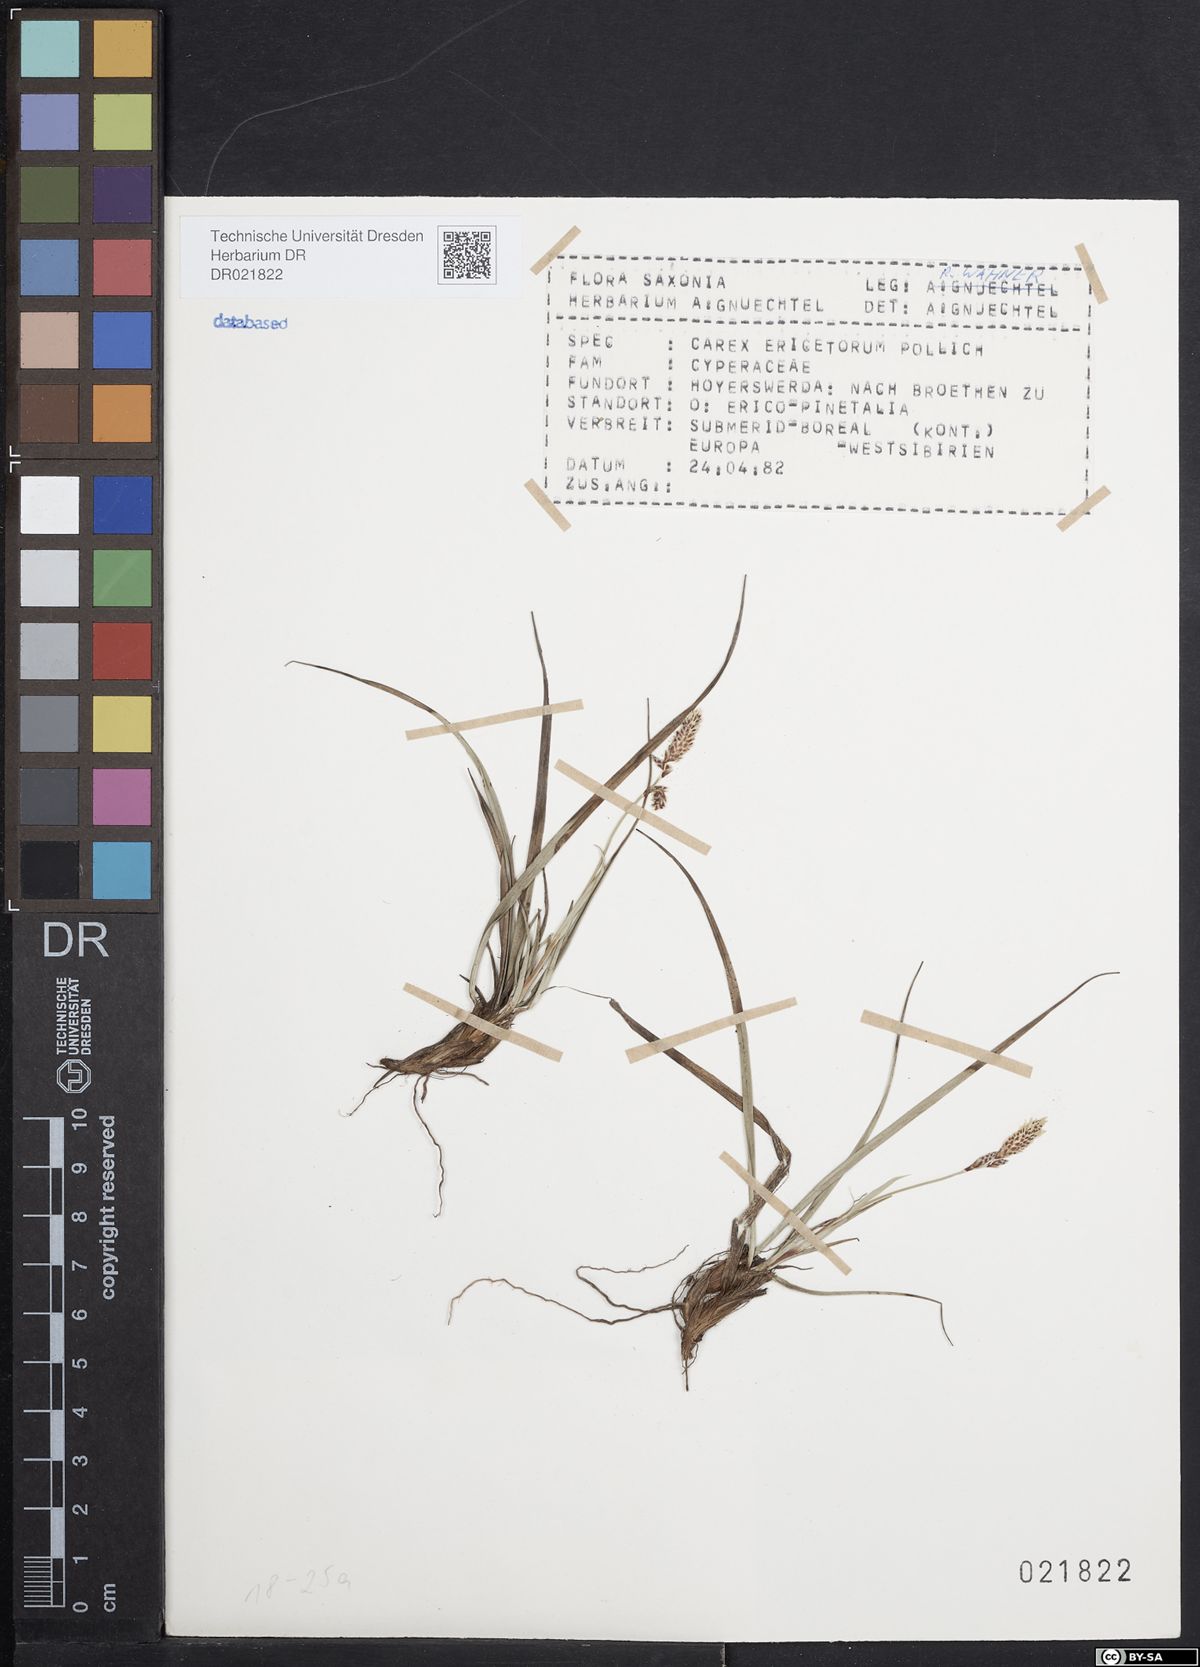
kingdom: Plantae
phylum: Tracheophyta
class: Liliopsida
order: Poales
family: Cyperaceae
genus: Carex
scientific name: Carex ericetorum
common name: Rare spring-sedge
